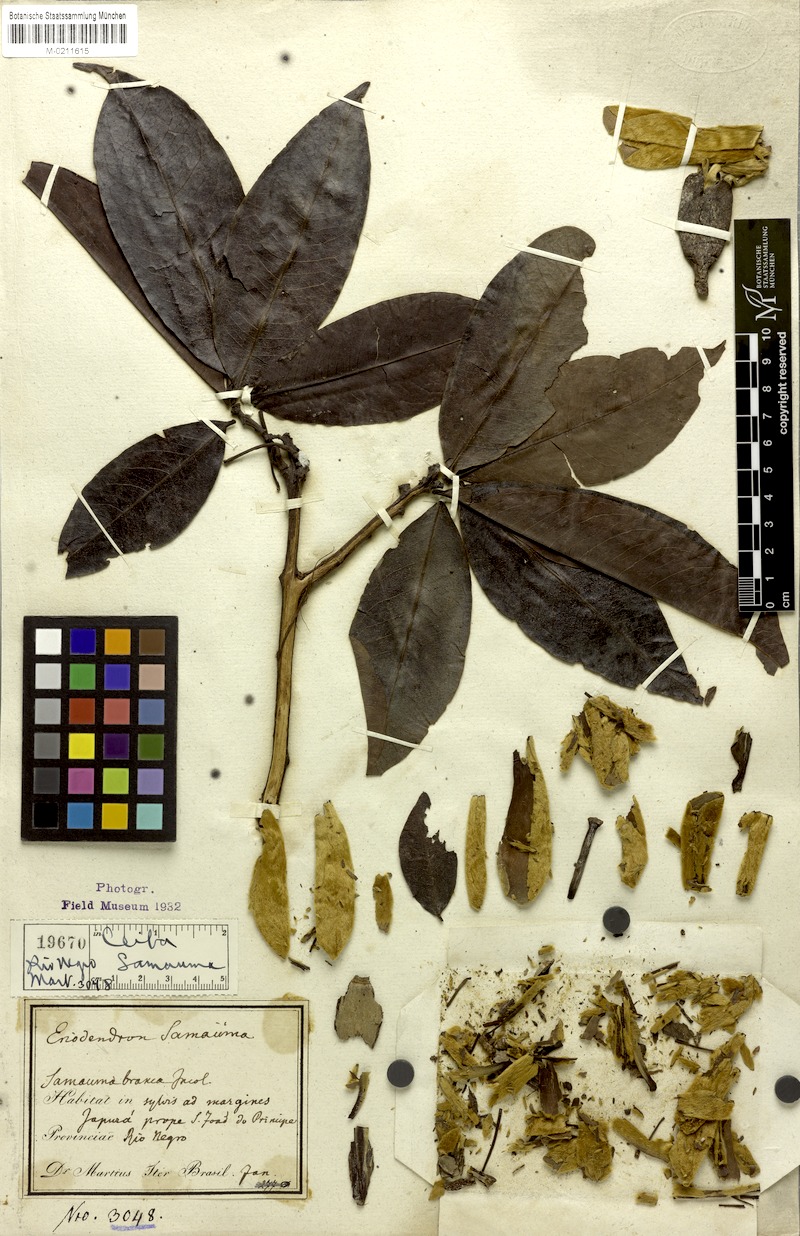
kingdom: Plantae
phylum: Tracheophyta
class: Magnoliopsida
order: Malvales
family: Malvaceae
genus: Ceiba
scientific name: Ceiba samauma
